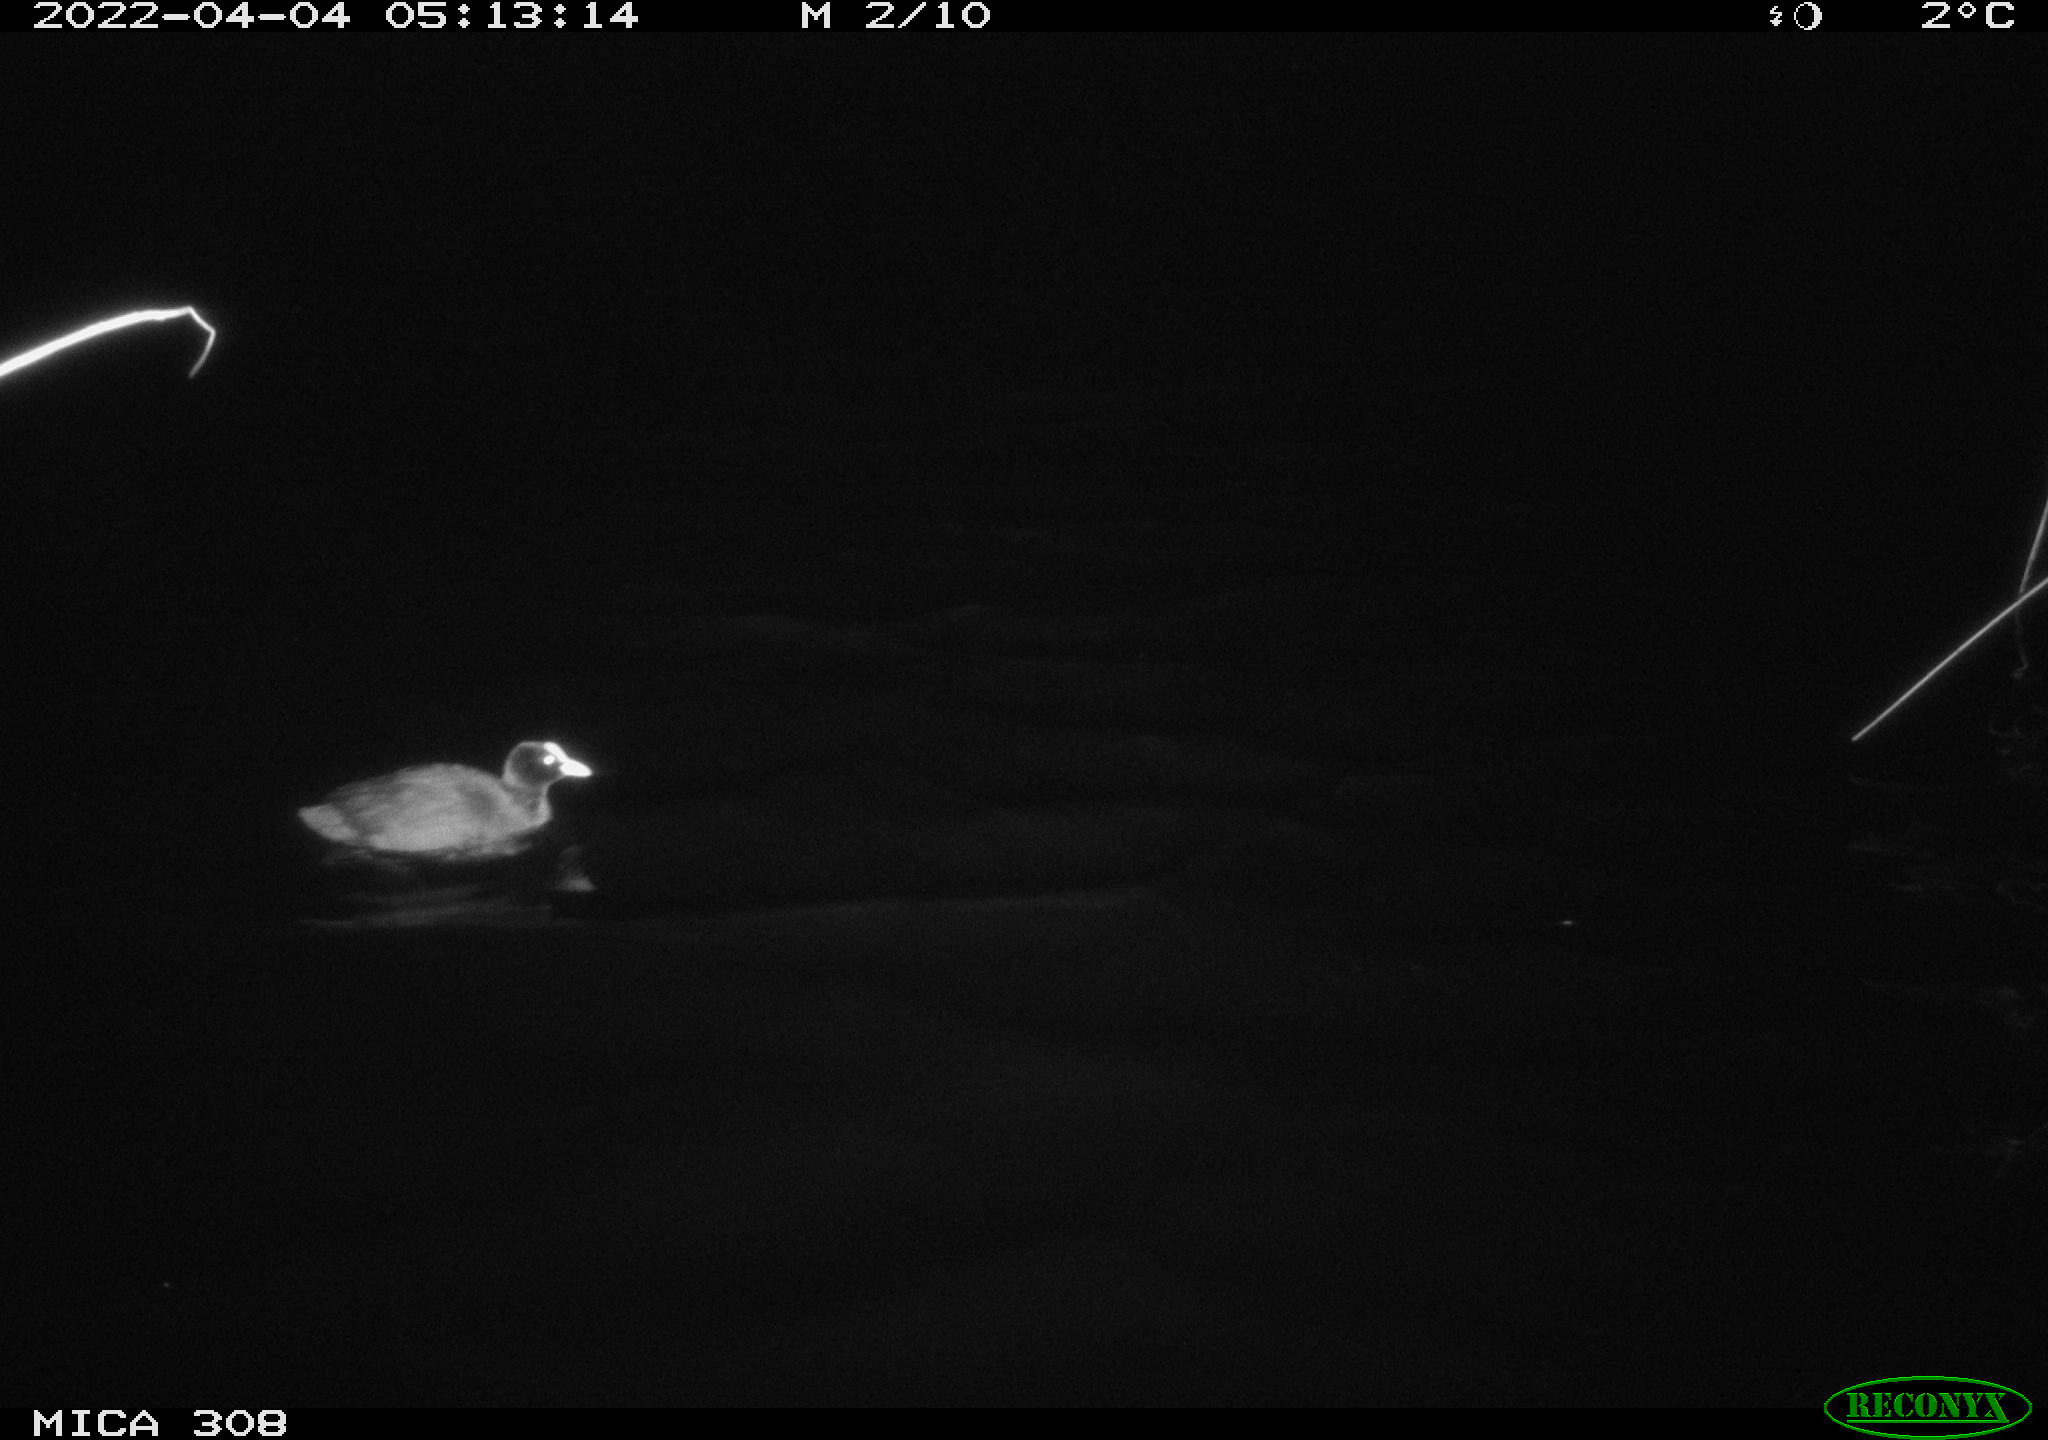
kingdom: Animalia
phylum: Chordata
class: Aves
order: Gruiformes
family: Rallidae
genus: Fulica
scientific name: Fulica atra
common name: Eurasian coot
